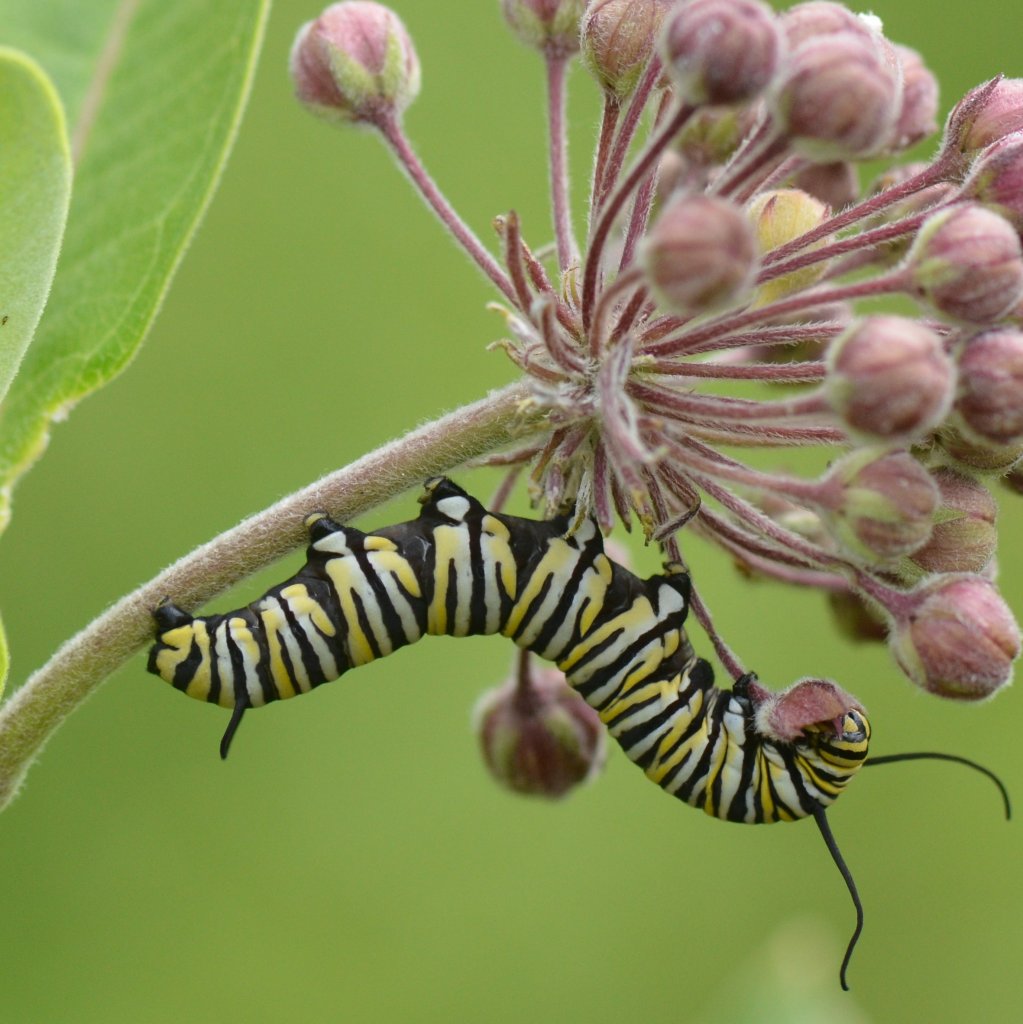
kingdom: Animalia
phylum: Arthropoda
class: Insecta
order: Lepidoptera
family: Nymphalidae
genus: Danaus
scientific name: Danaus plexippus
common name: Monarch
